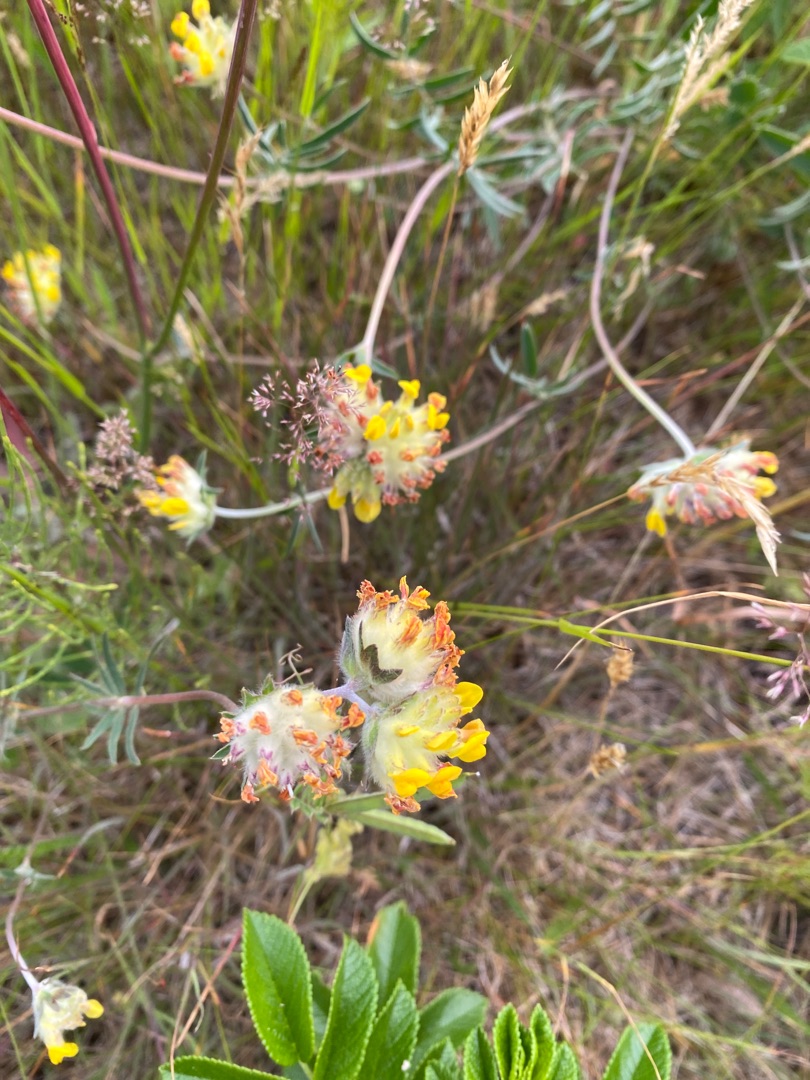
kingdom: Plantae
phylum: Tracheophyta
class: Magnoliopsida
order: Fabales
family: Fabaceae
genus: Anthyllis
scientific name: Anthyllis vulneraria
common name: Rundbælg
